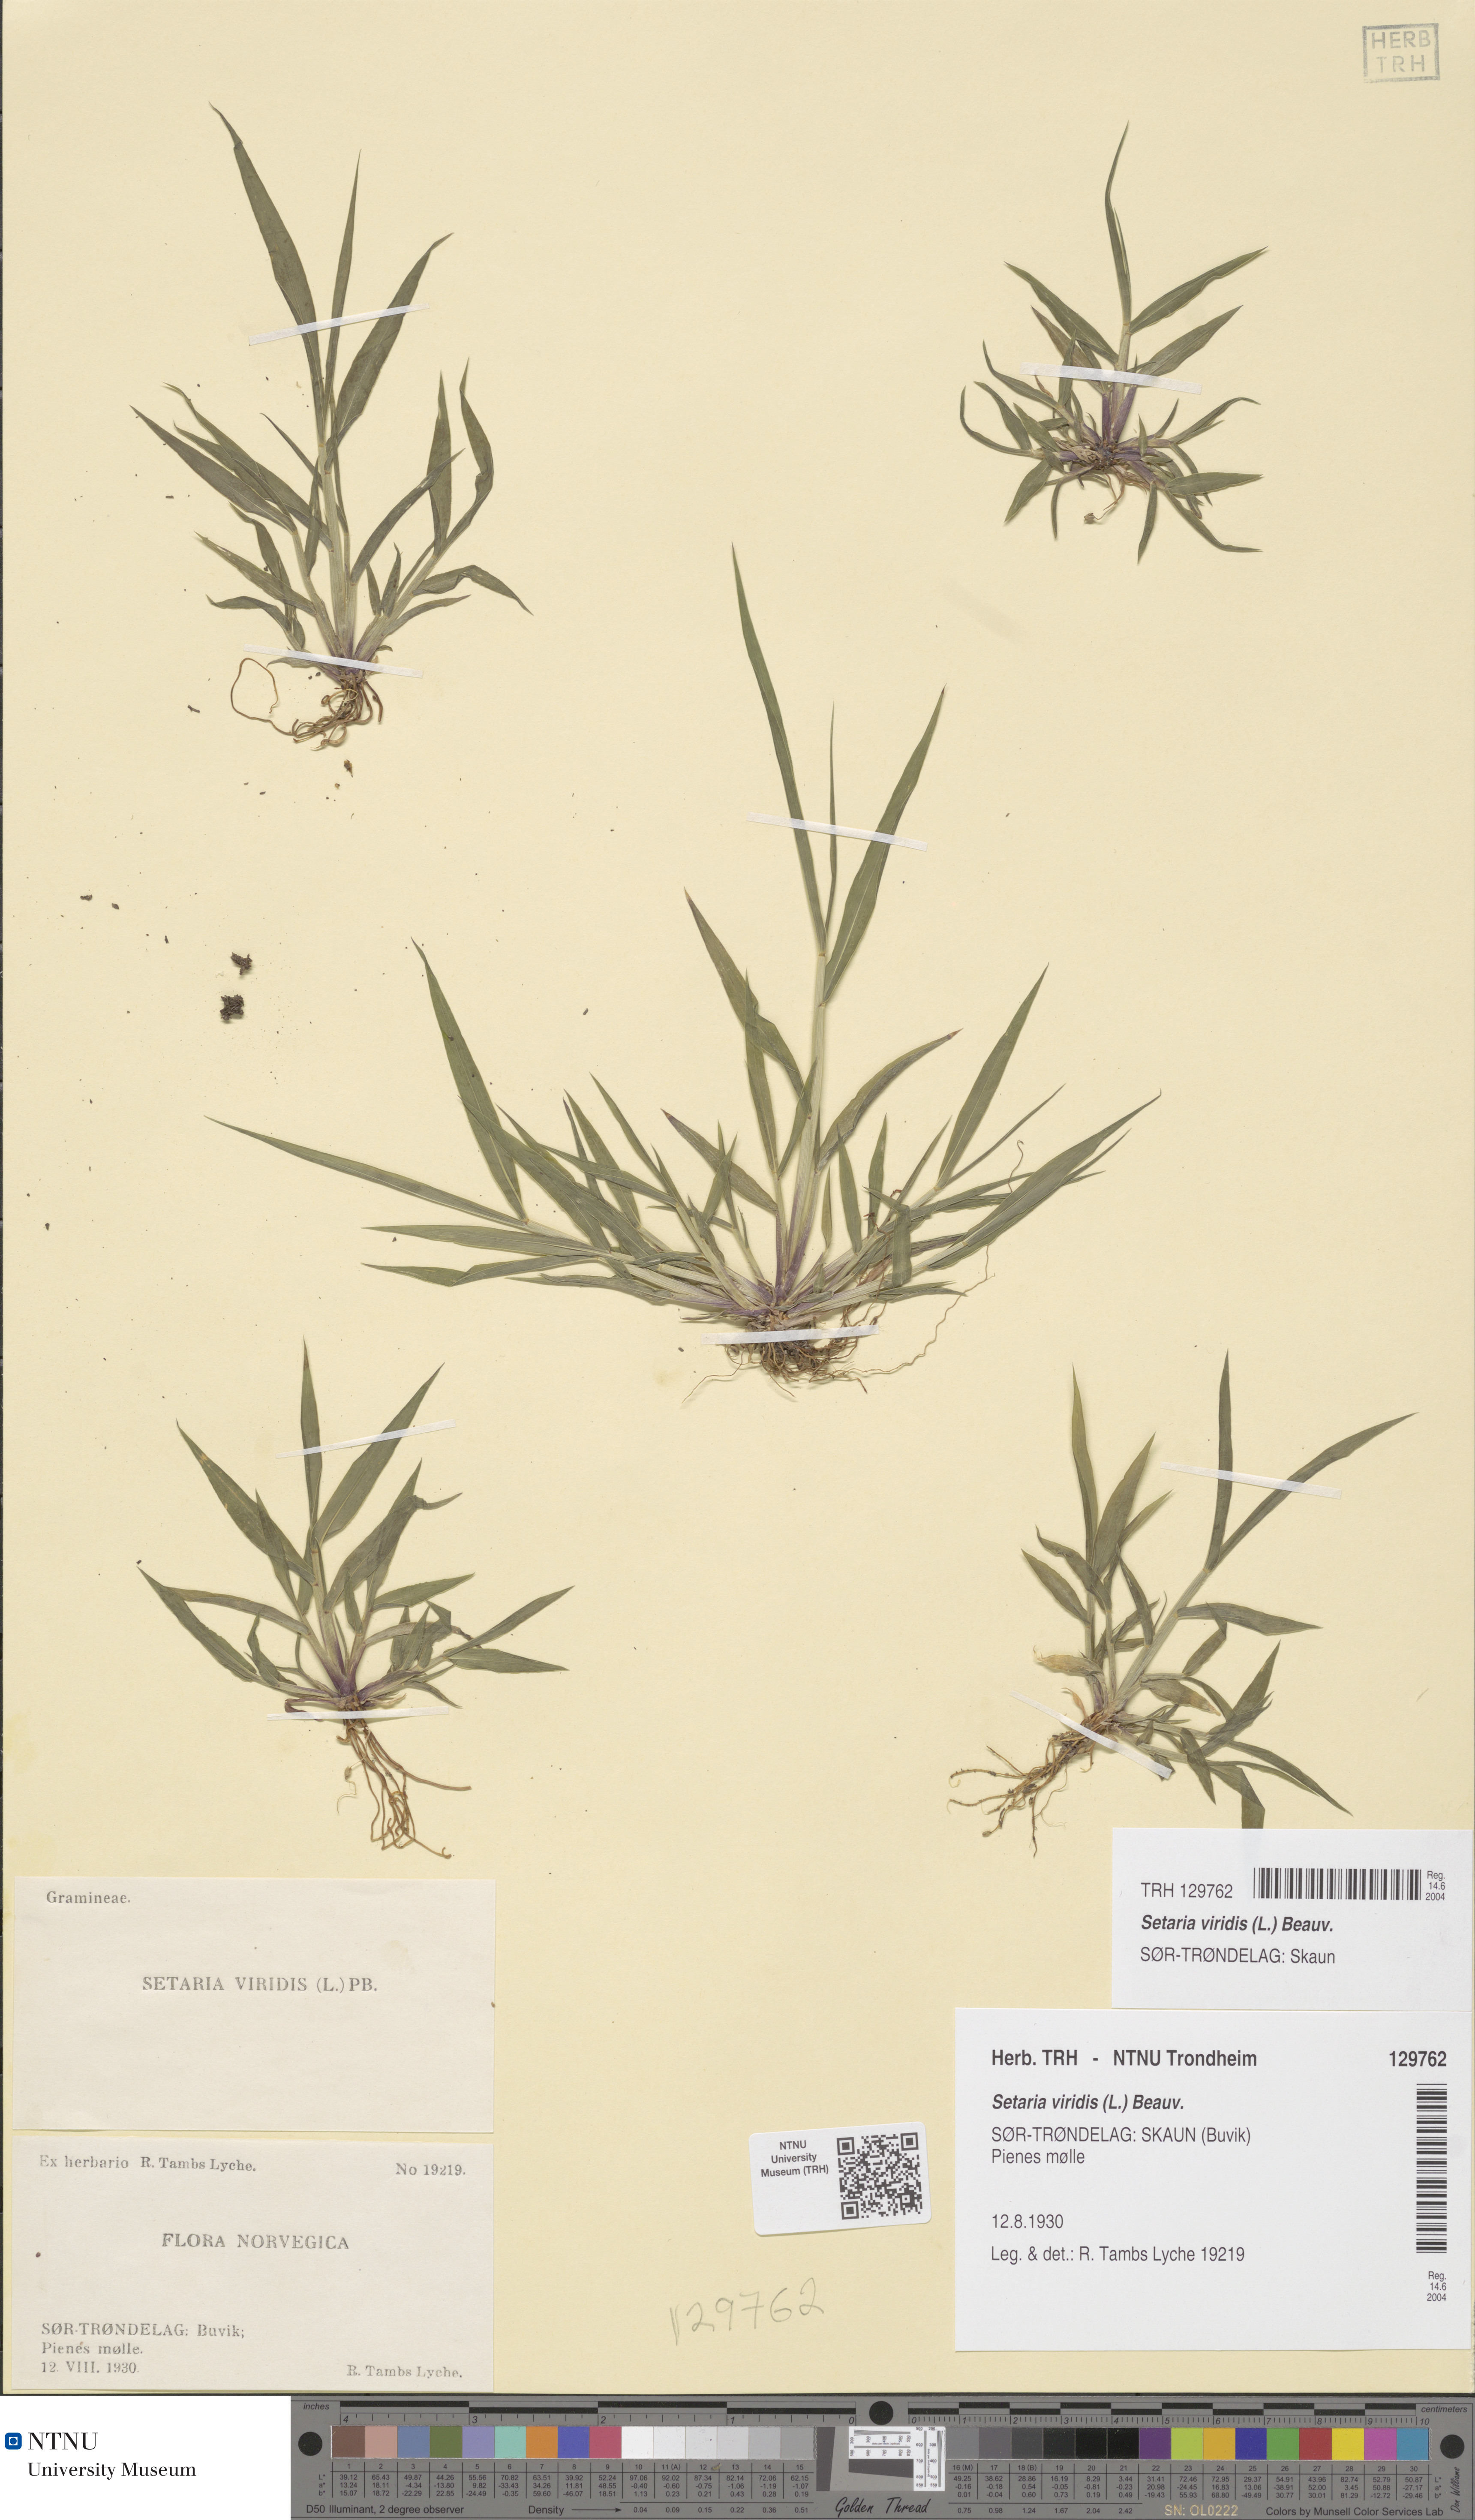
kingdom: Plantae
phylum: Tracheophyta
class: Liliopsida
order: Poales
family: Poaceae
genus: Setaria
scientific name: Setaria viridis
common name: Green bristlegrass
